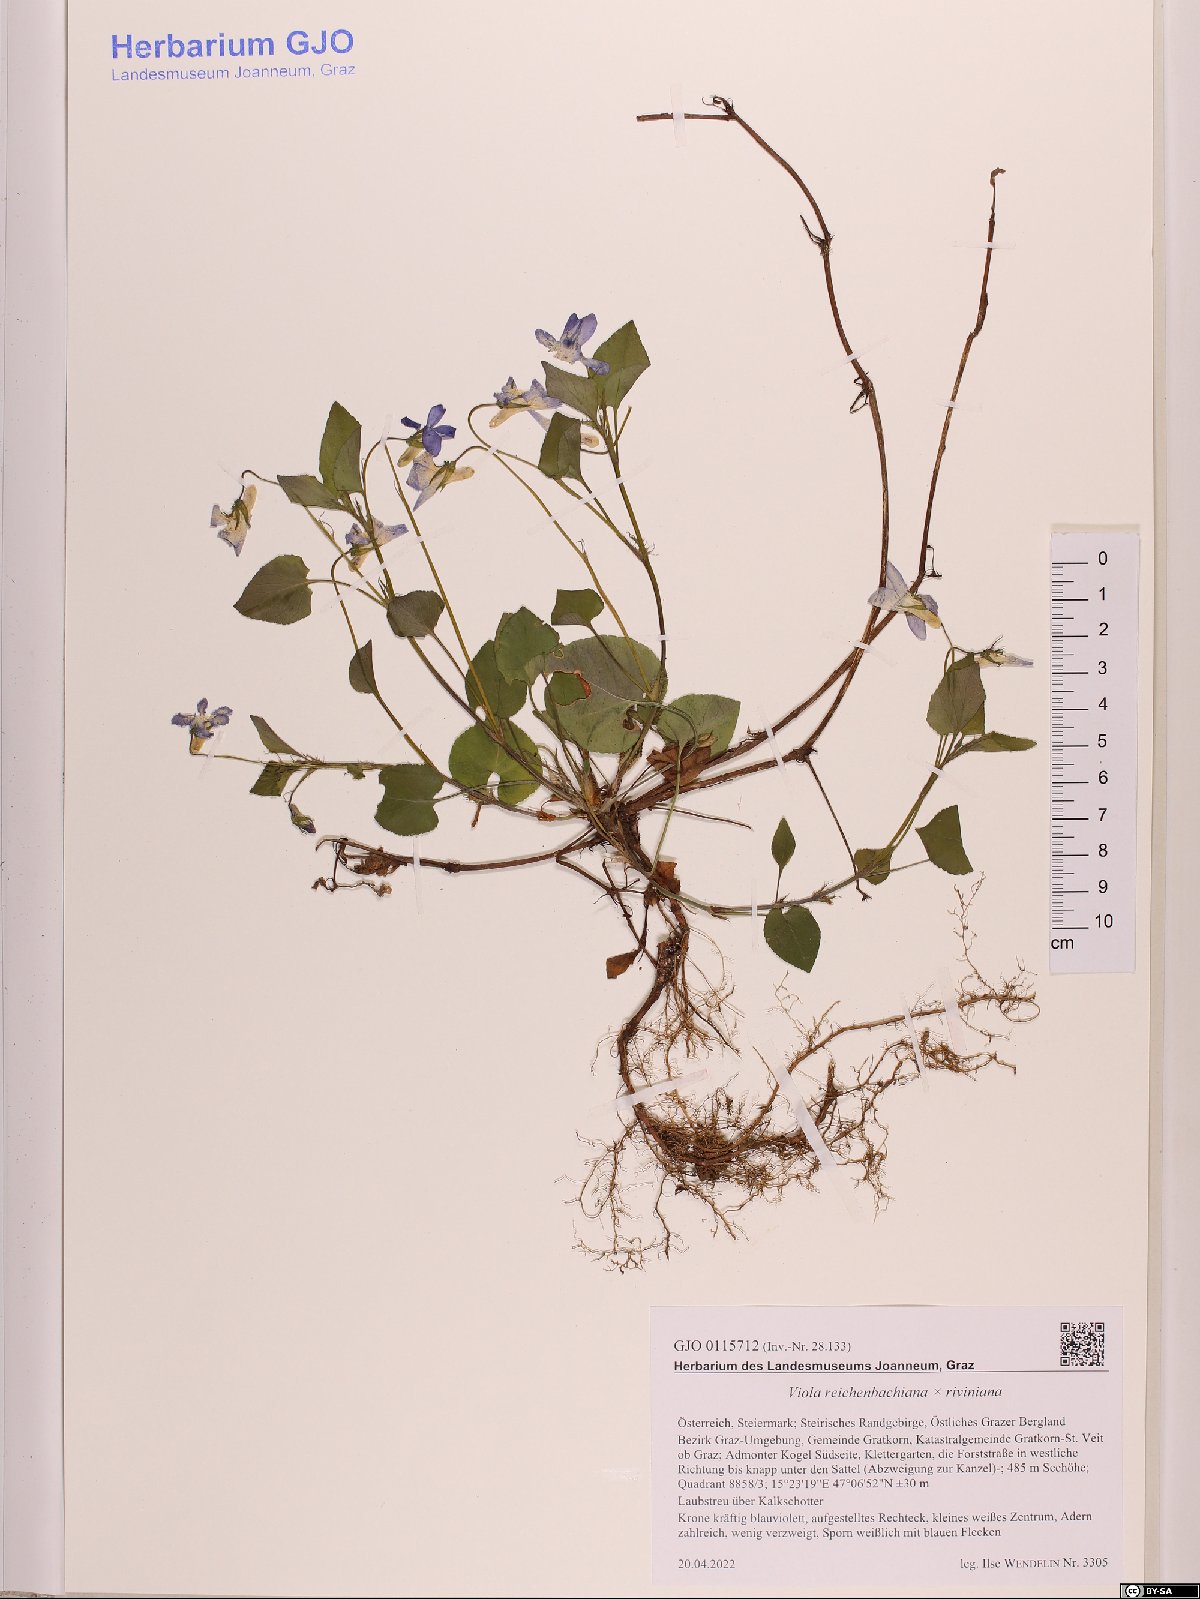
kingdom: Plantae
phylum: Tracheophyta
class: Magnoliopsida
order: Malpighiales
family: Violaceae
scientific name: Violaceae
